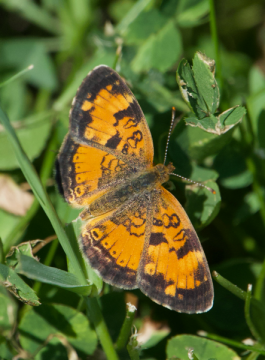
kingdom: Animalia
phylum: Arthropoda
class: Insecta
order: Lepidoptera
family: Nymphalidae
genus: Phyciodes
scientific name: Phyciodes tharos
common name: Northern Crescent
